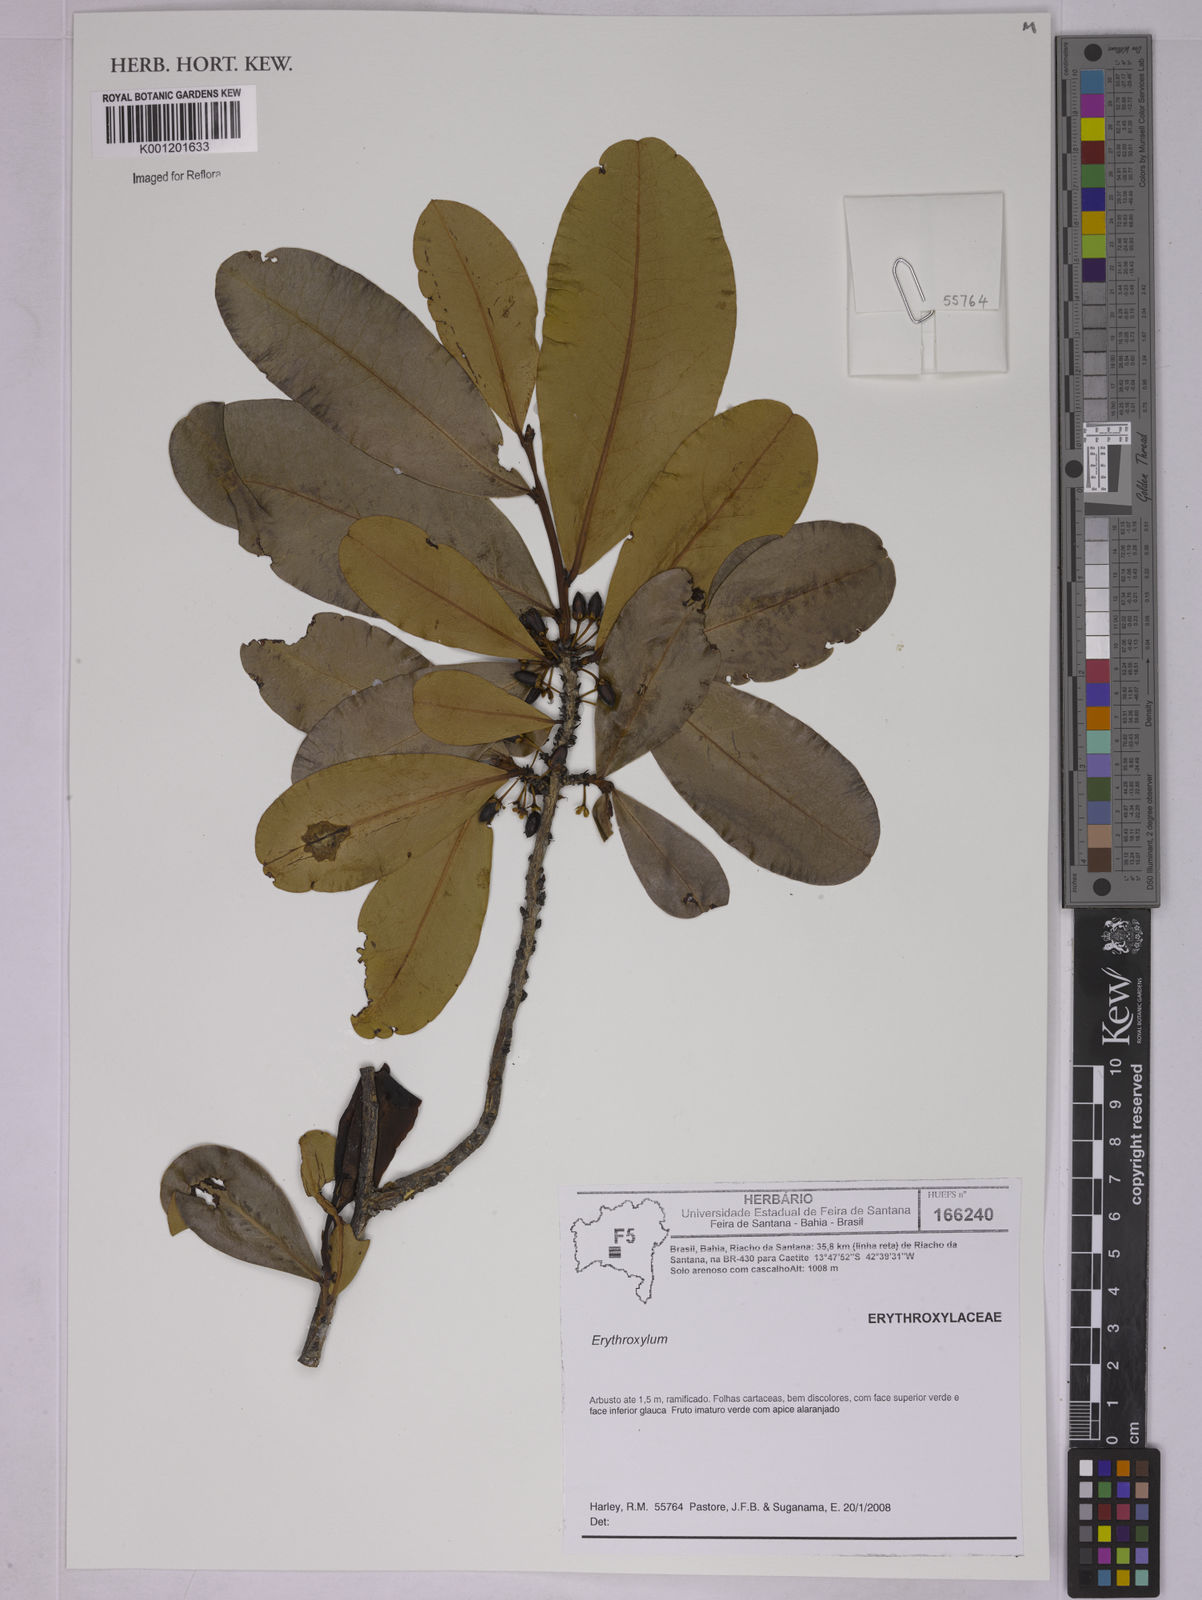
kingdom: Plantae
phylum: Tracheophyta
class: Magnoliopsida
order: Malpighiales
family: Erythroxylaceae
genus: Erythroxylum
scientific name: Erythroxylum
